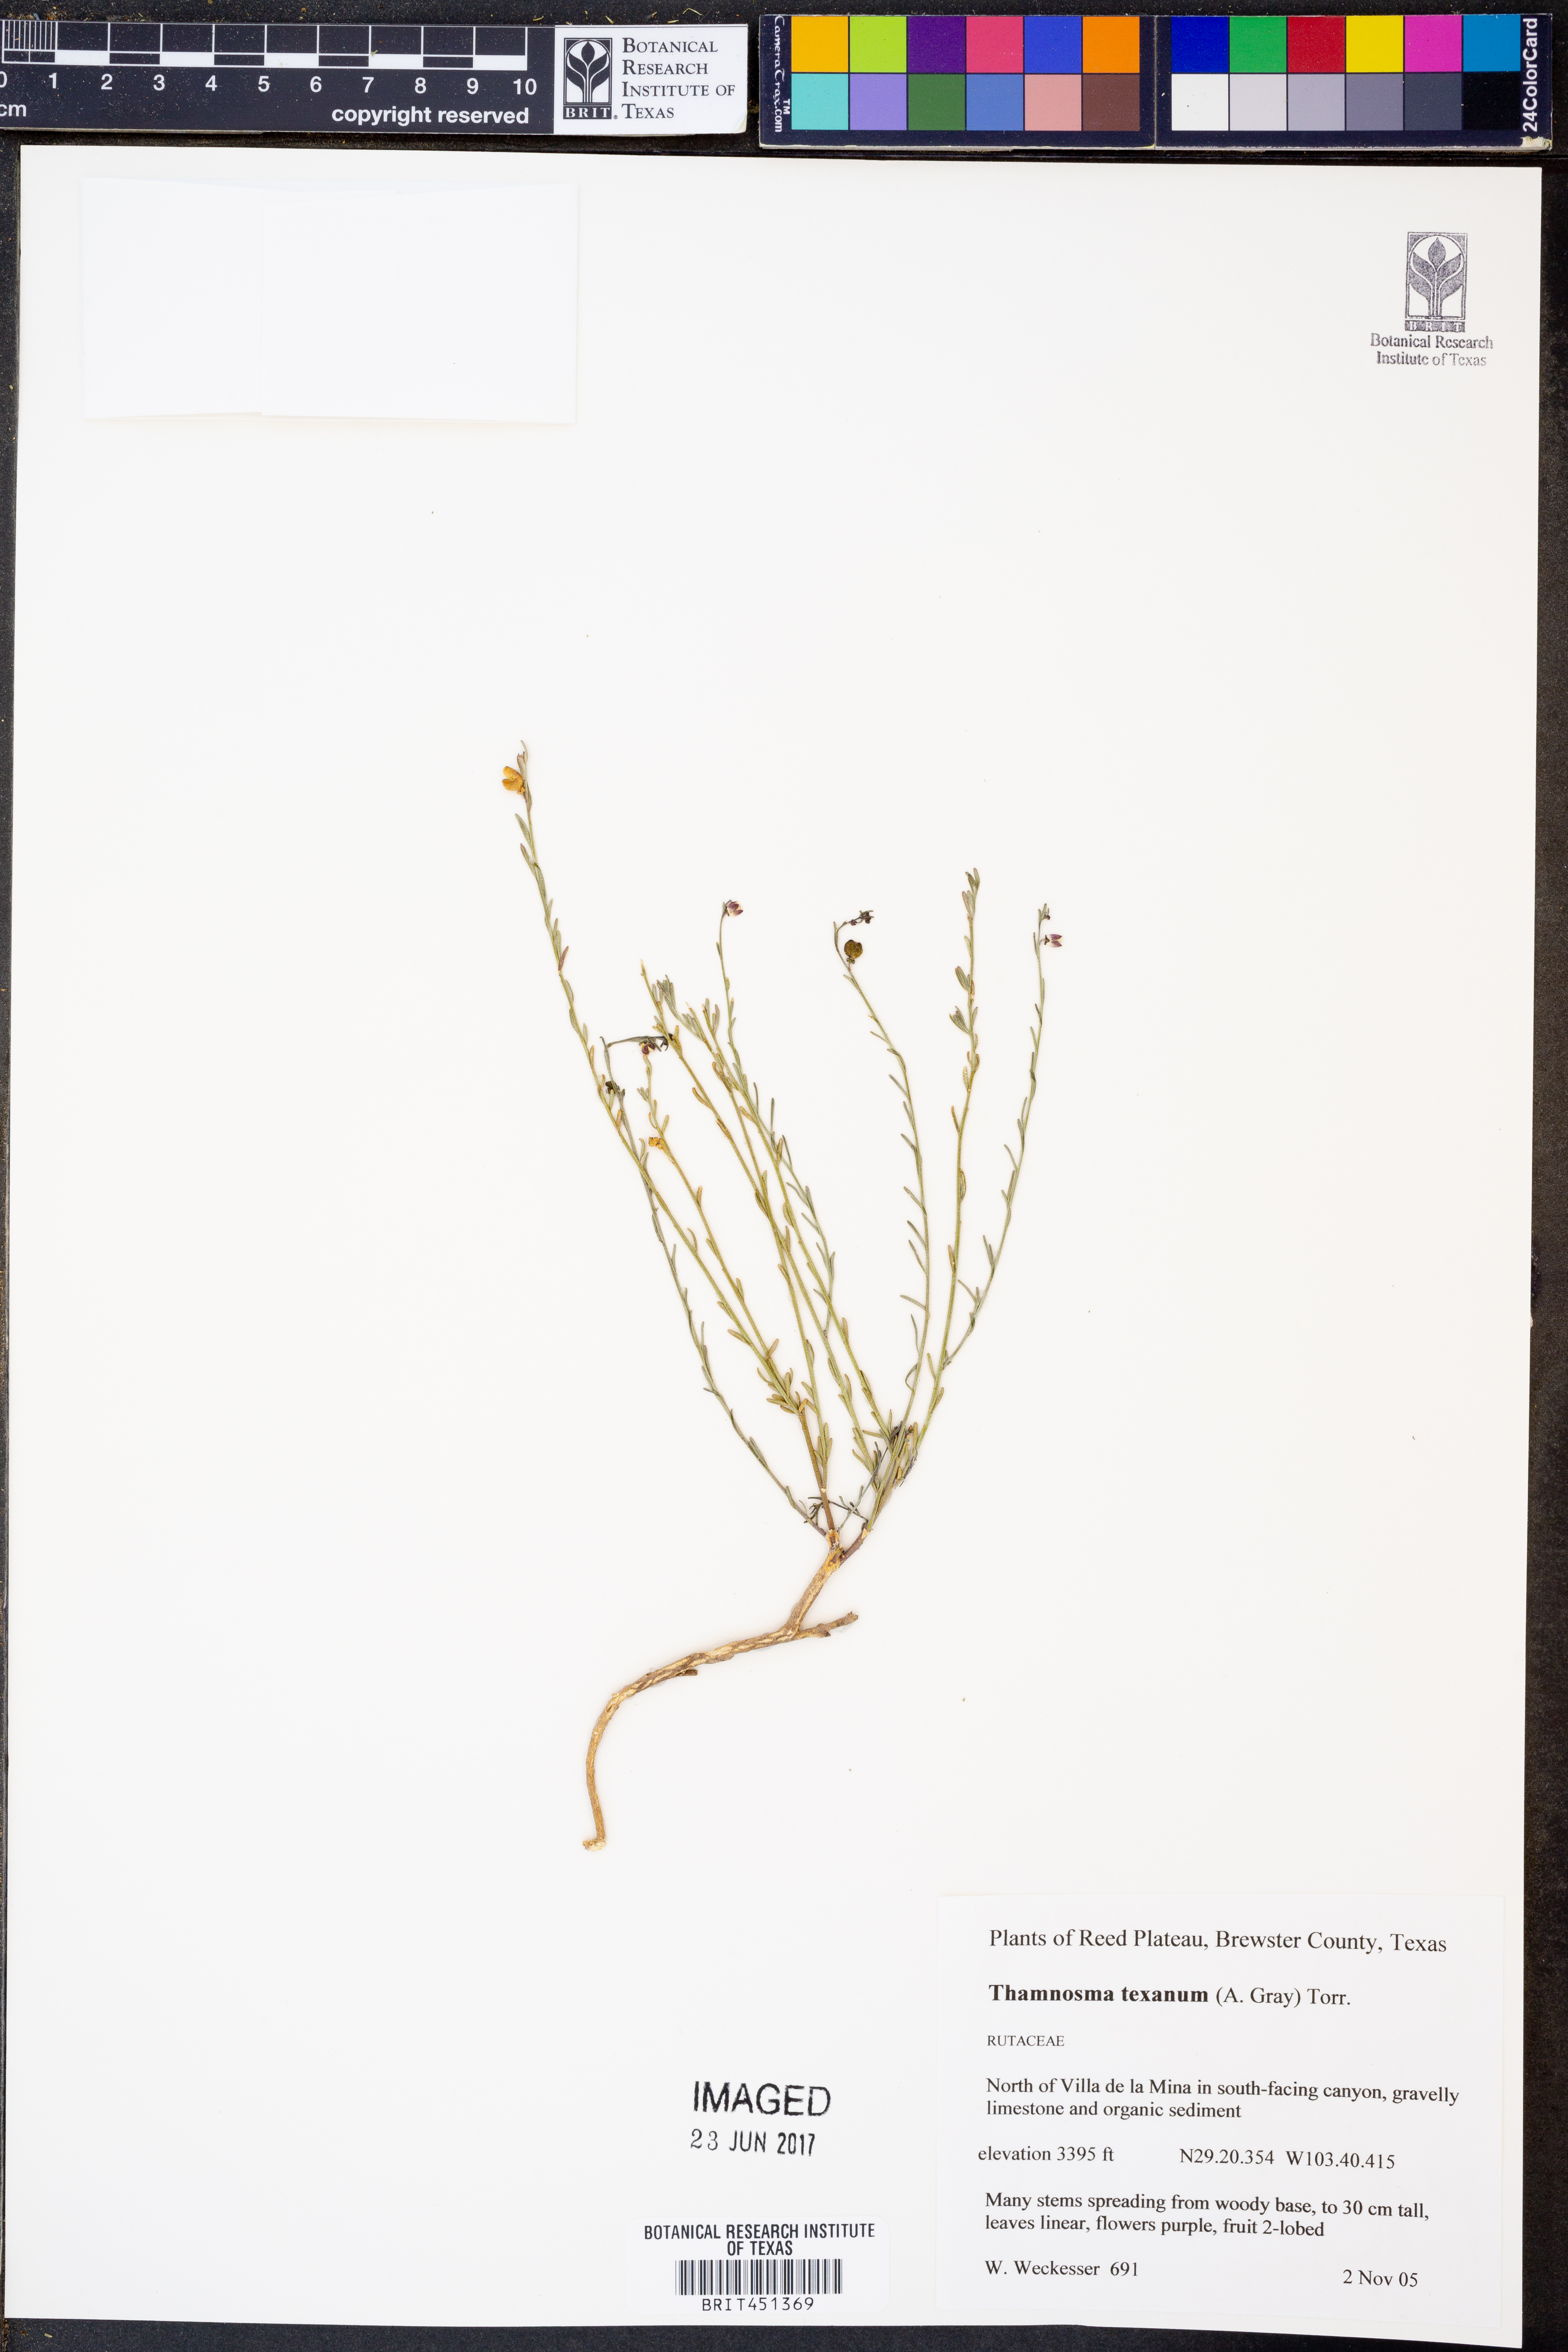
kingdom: Plantae
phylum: Tracheophyta
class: Magnoliopsida
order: Sapindales
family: Rutaceae
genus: Thamnosma
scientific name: Thamnosma texana
